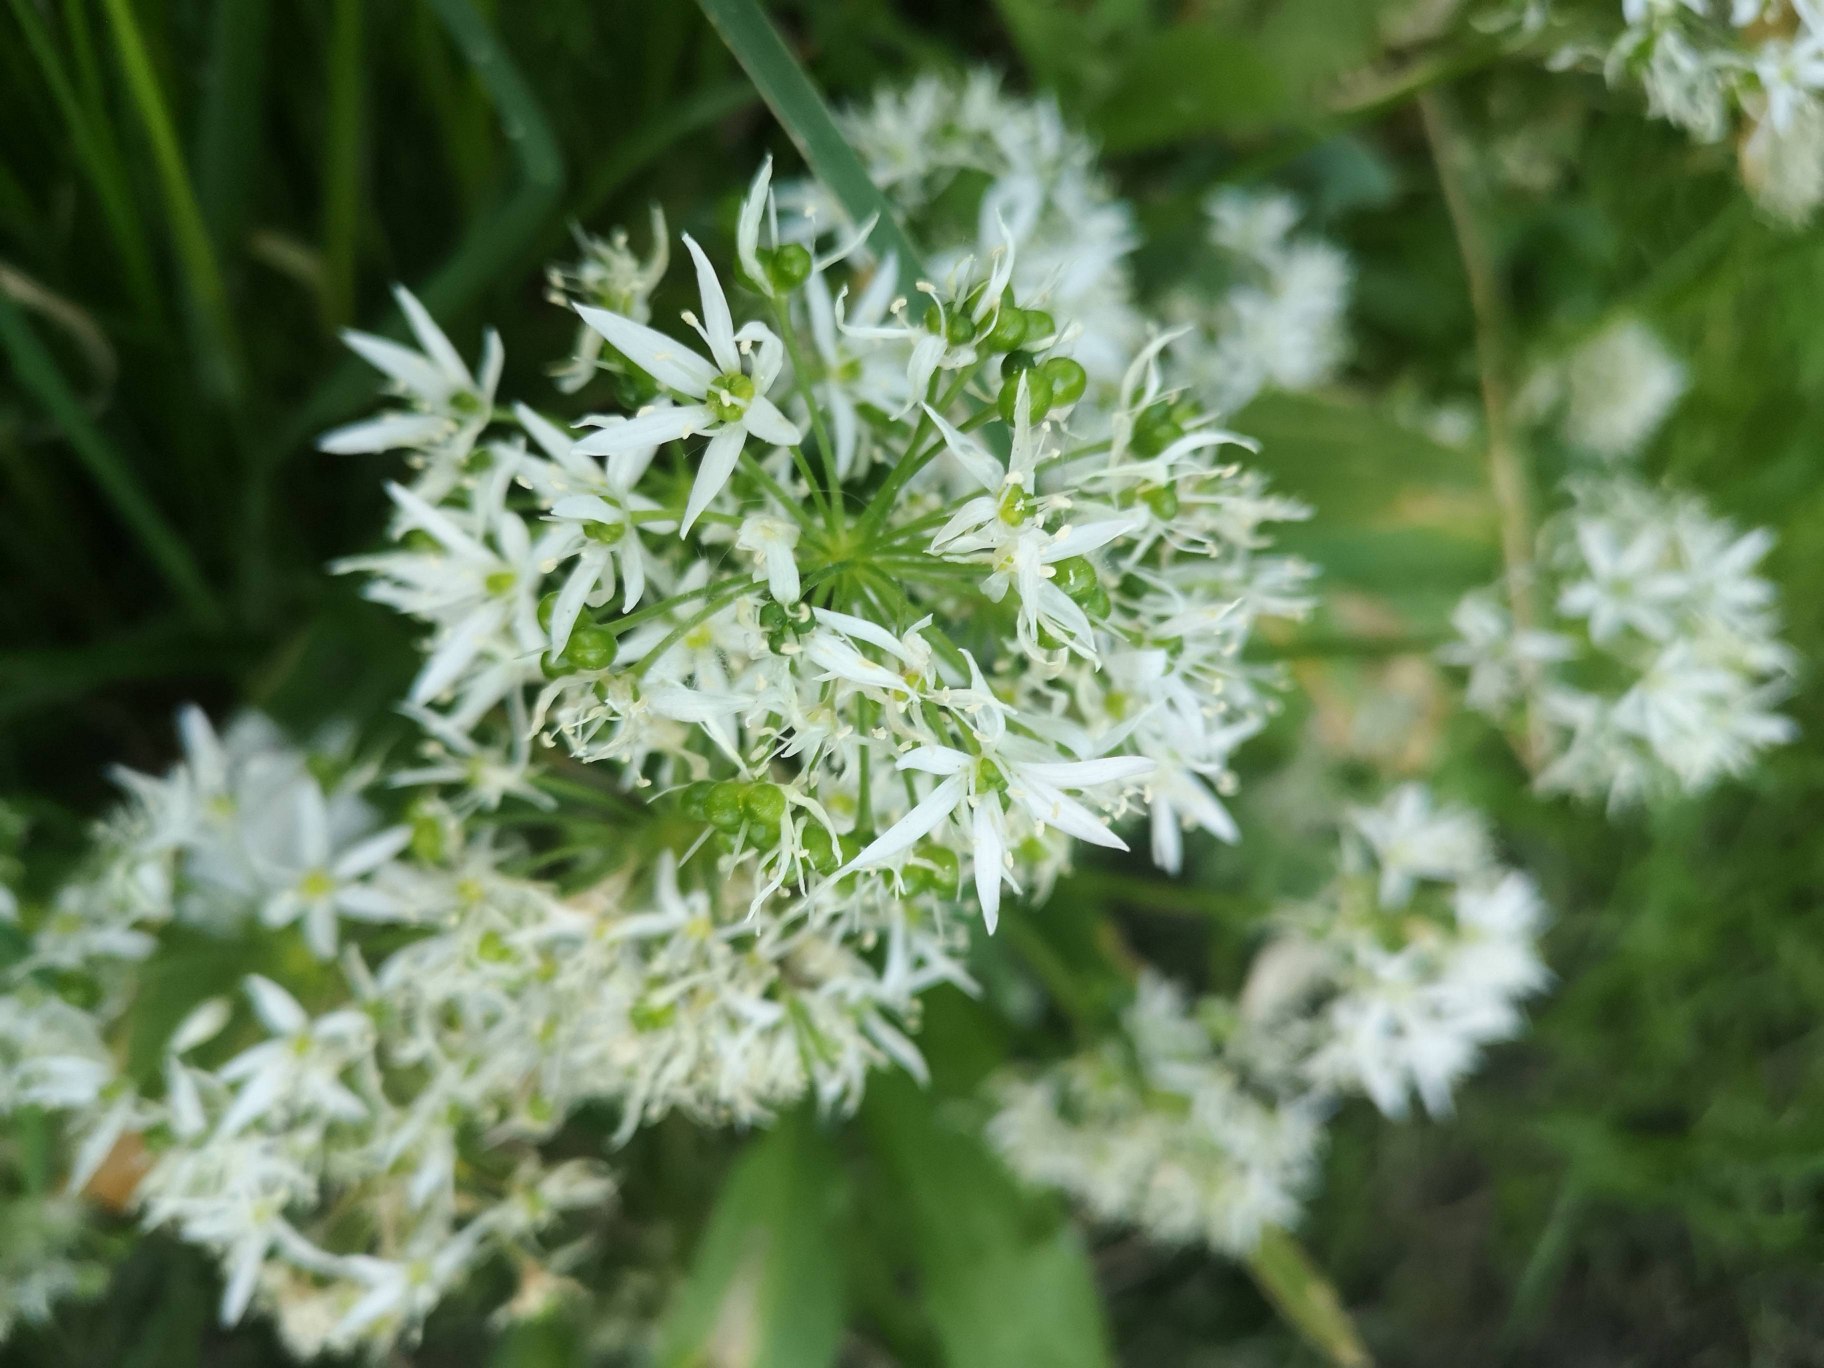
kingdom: Plantae
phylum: Tracheophyta
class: Liliopsida
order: Asparagales
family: Amaryllidaceae
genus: Allium
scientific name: Allium ursinum
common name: Rams-løg
